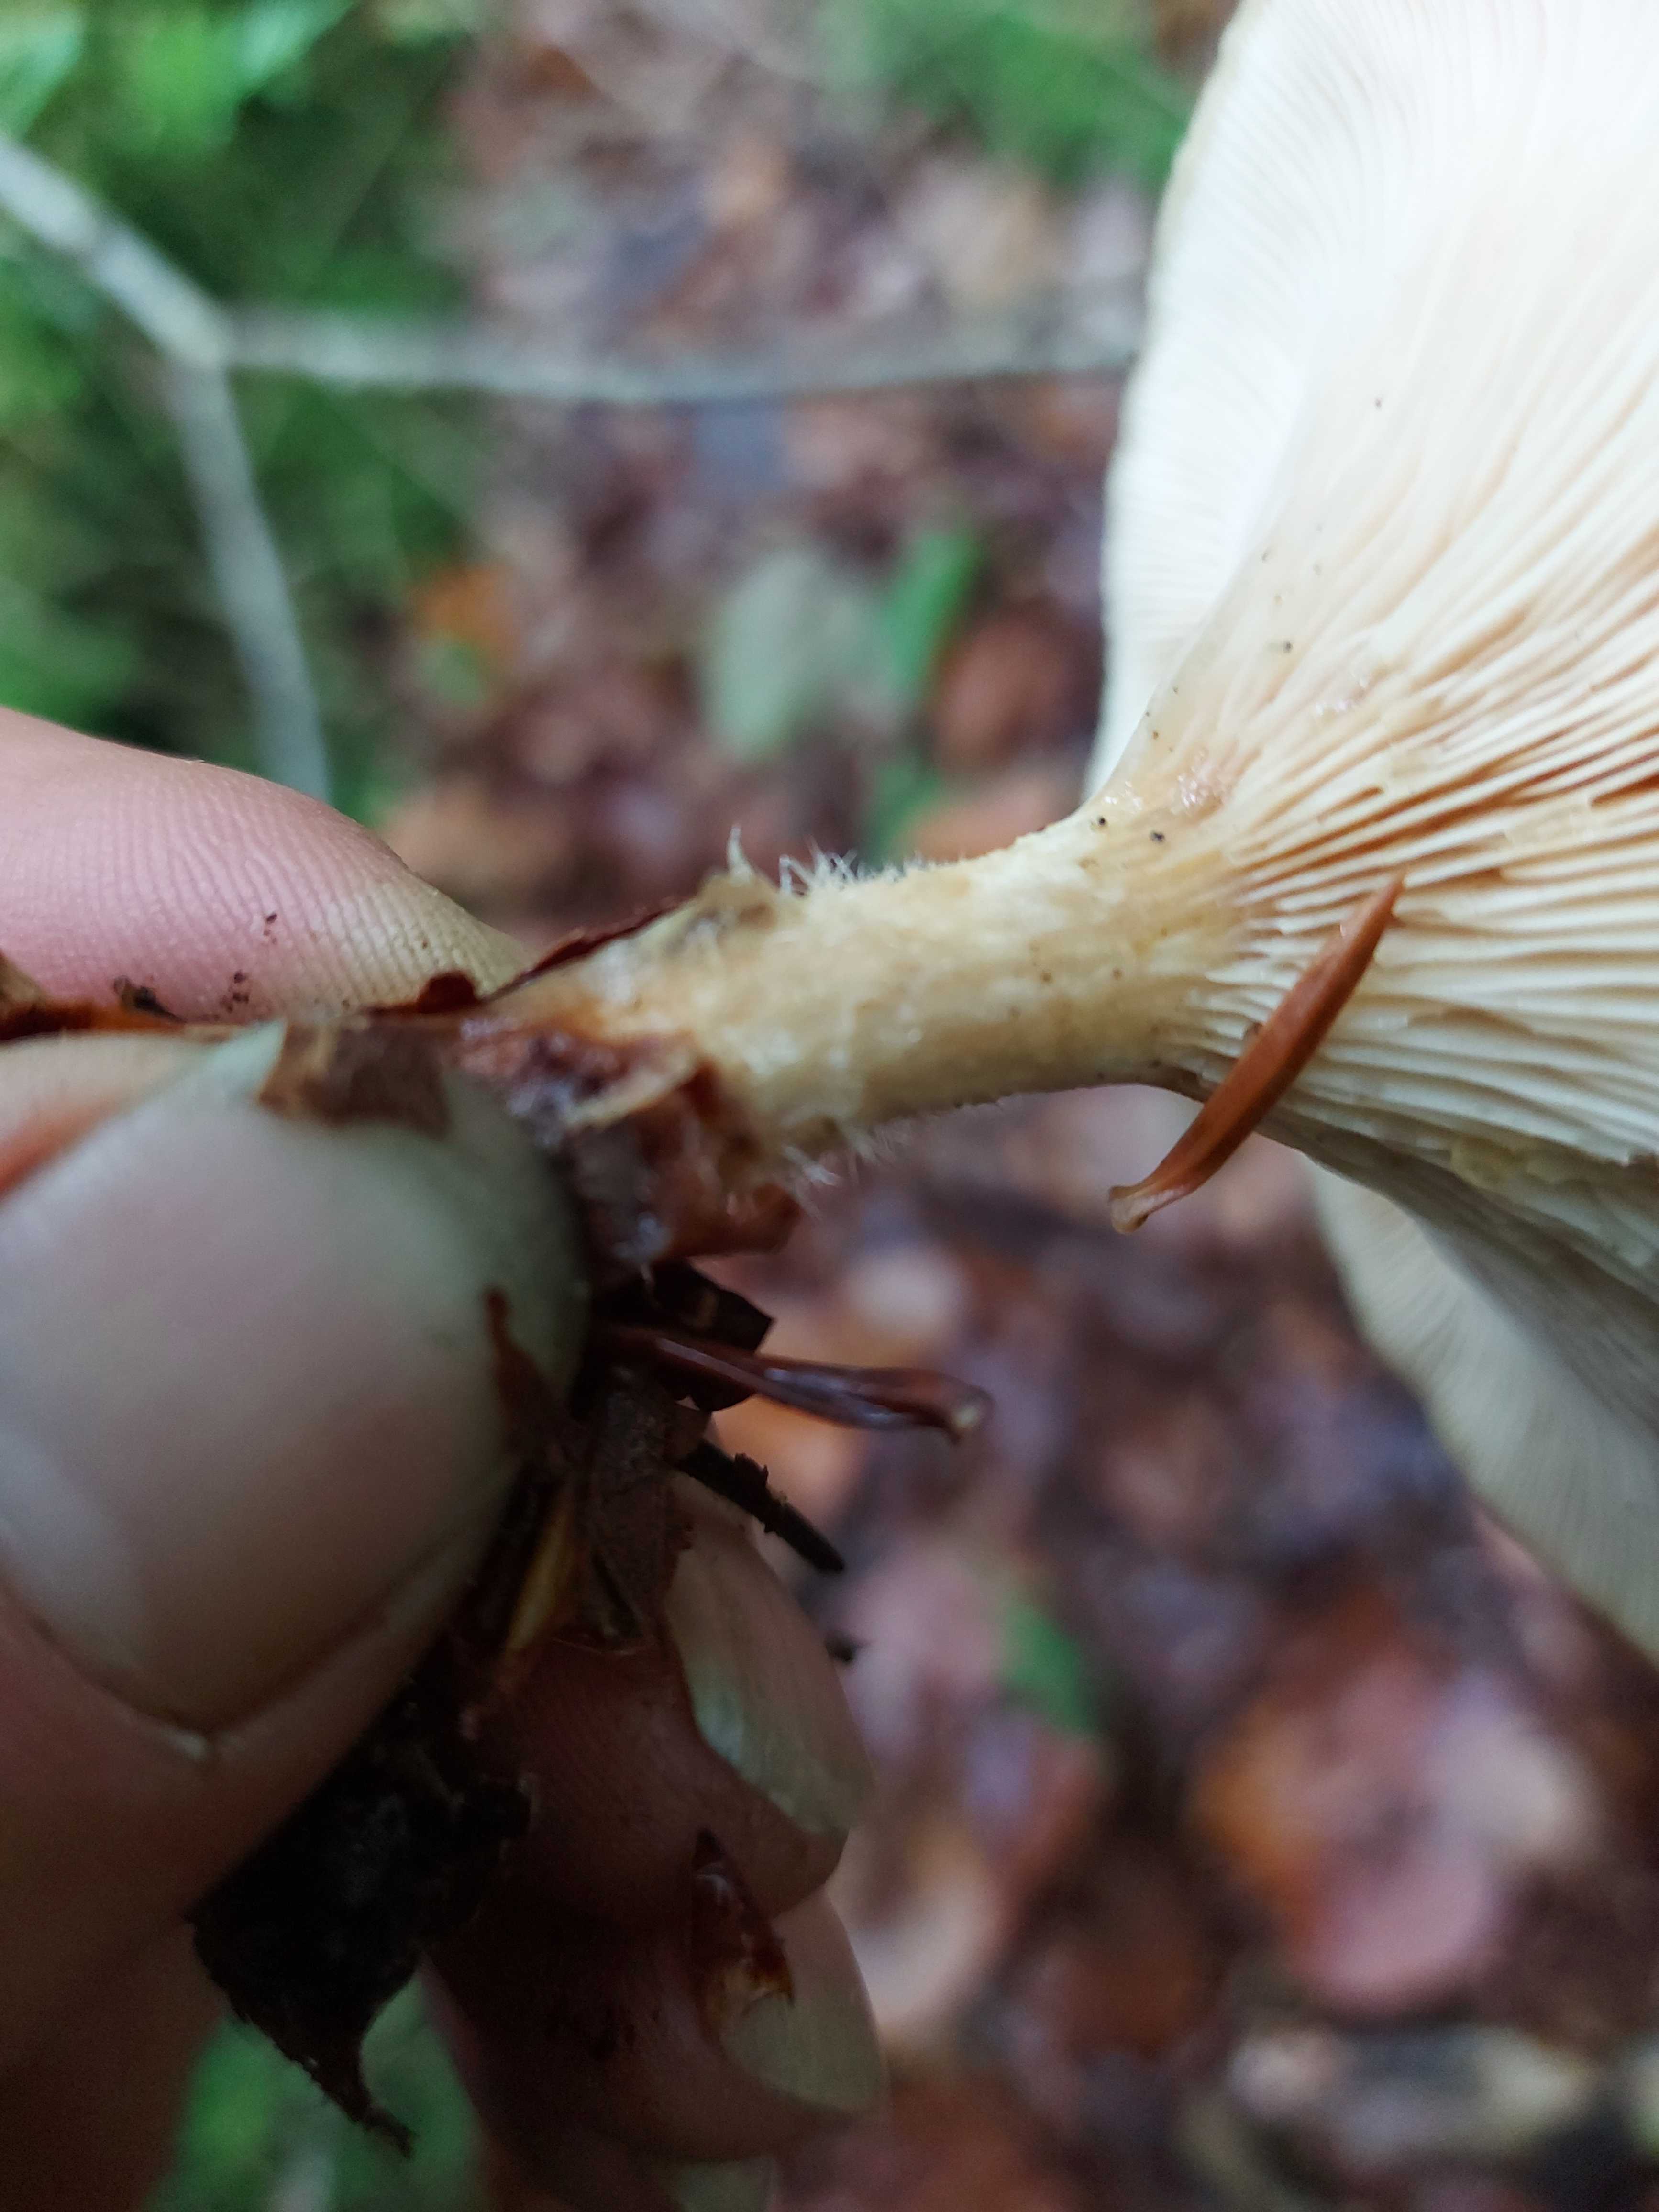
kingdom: Fungi
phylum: Basidiomycota
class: Agaricomycetes
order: Agaricales
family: Tricholomataceae
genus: Paralepista
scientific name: Paralepista flaccida
